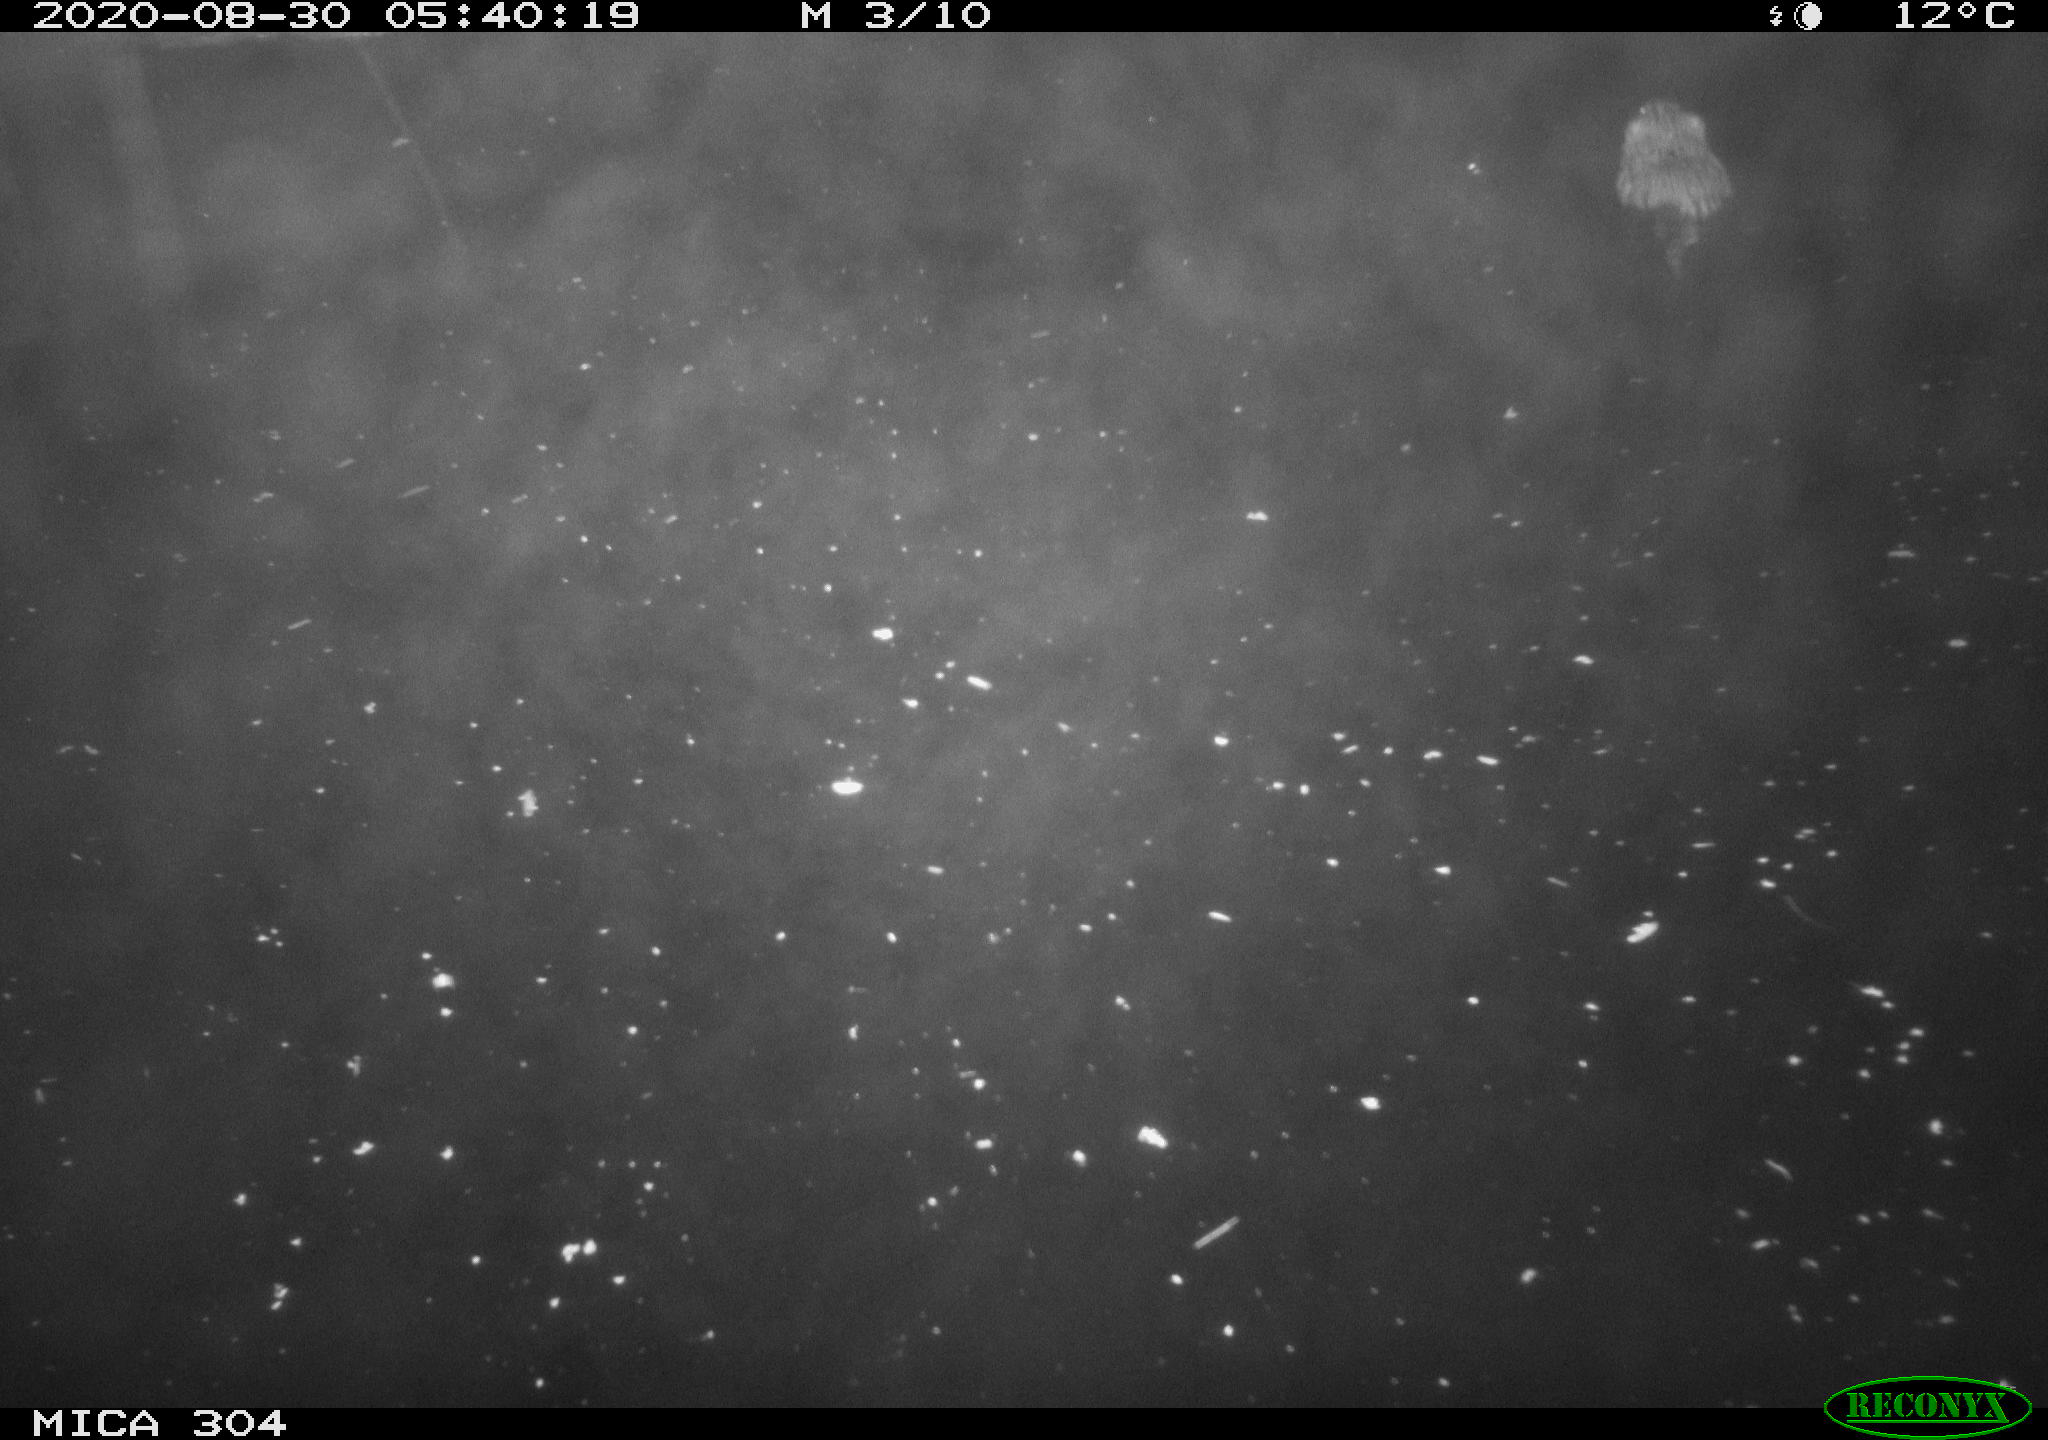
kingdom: Animalia
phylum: Chordata
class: Mammalia
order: Rodentia
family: Cricetidae
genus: Ondatra
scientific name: Ondatra zibethicus
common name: Muskrat
